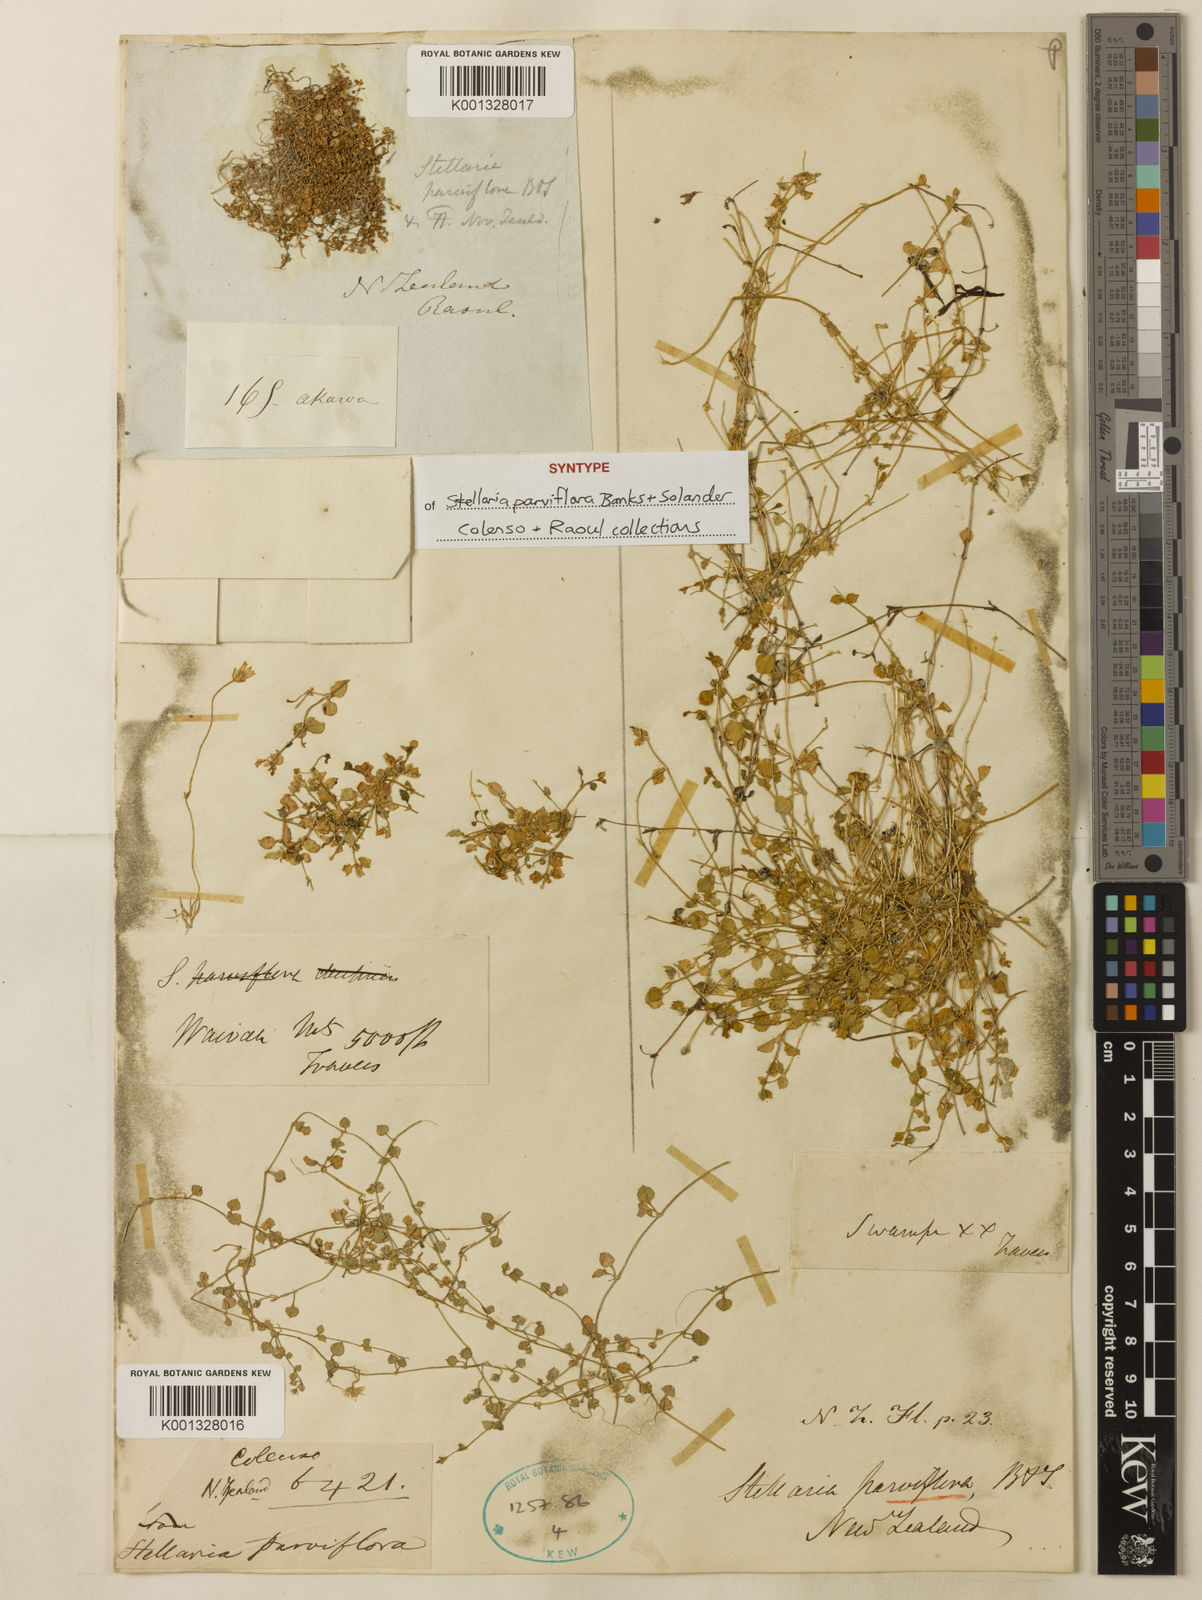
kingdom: Plantae
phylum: Tracheophyta
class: Magnoliopsida
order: Caryophyllales
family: Caryophyllaceae
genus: Stellaria
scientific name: Stellaria parviflora
